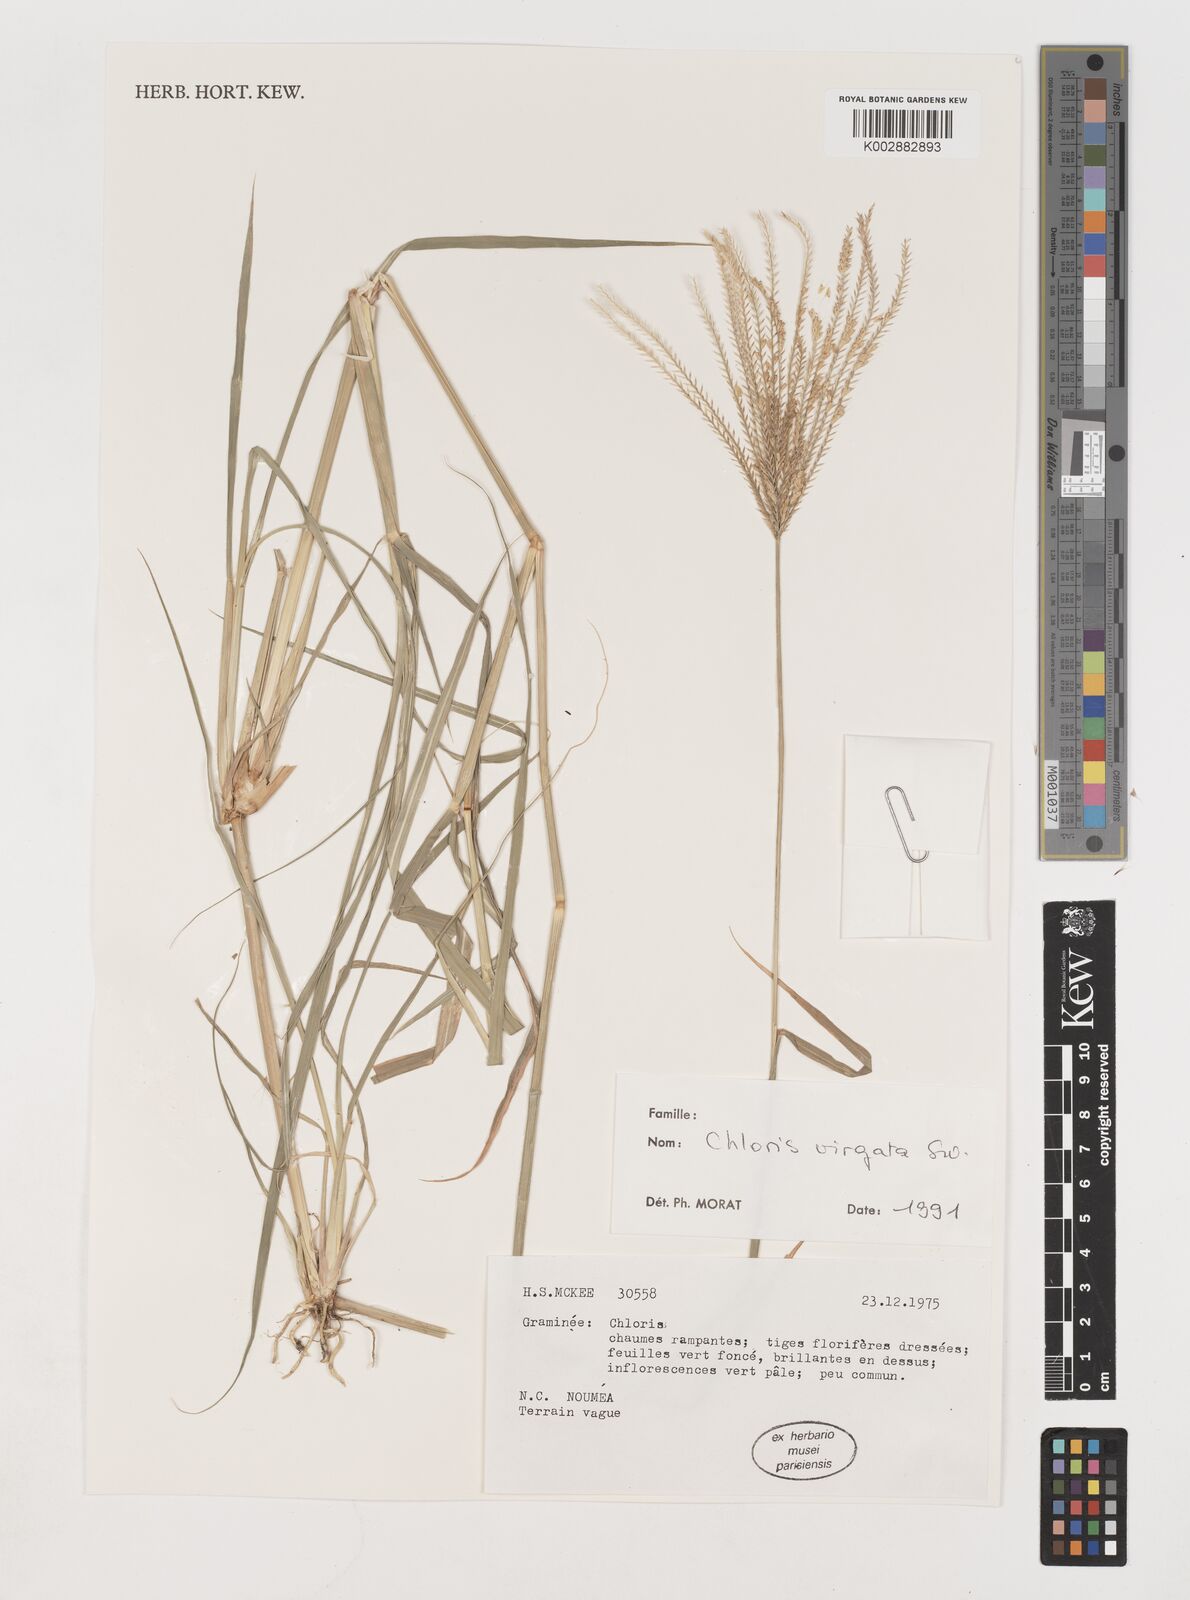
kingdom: Plantae
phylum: Tracheophyta
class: Liliopsida
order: Poales
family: Poaceae
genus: Chloris
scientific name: Chloris virgata
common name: Feathery rhodes-grass
